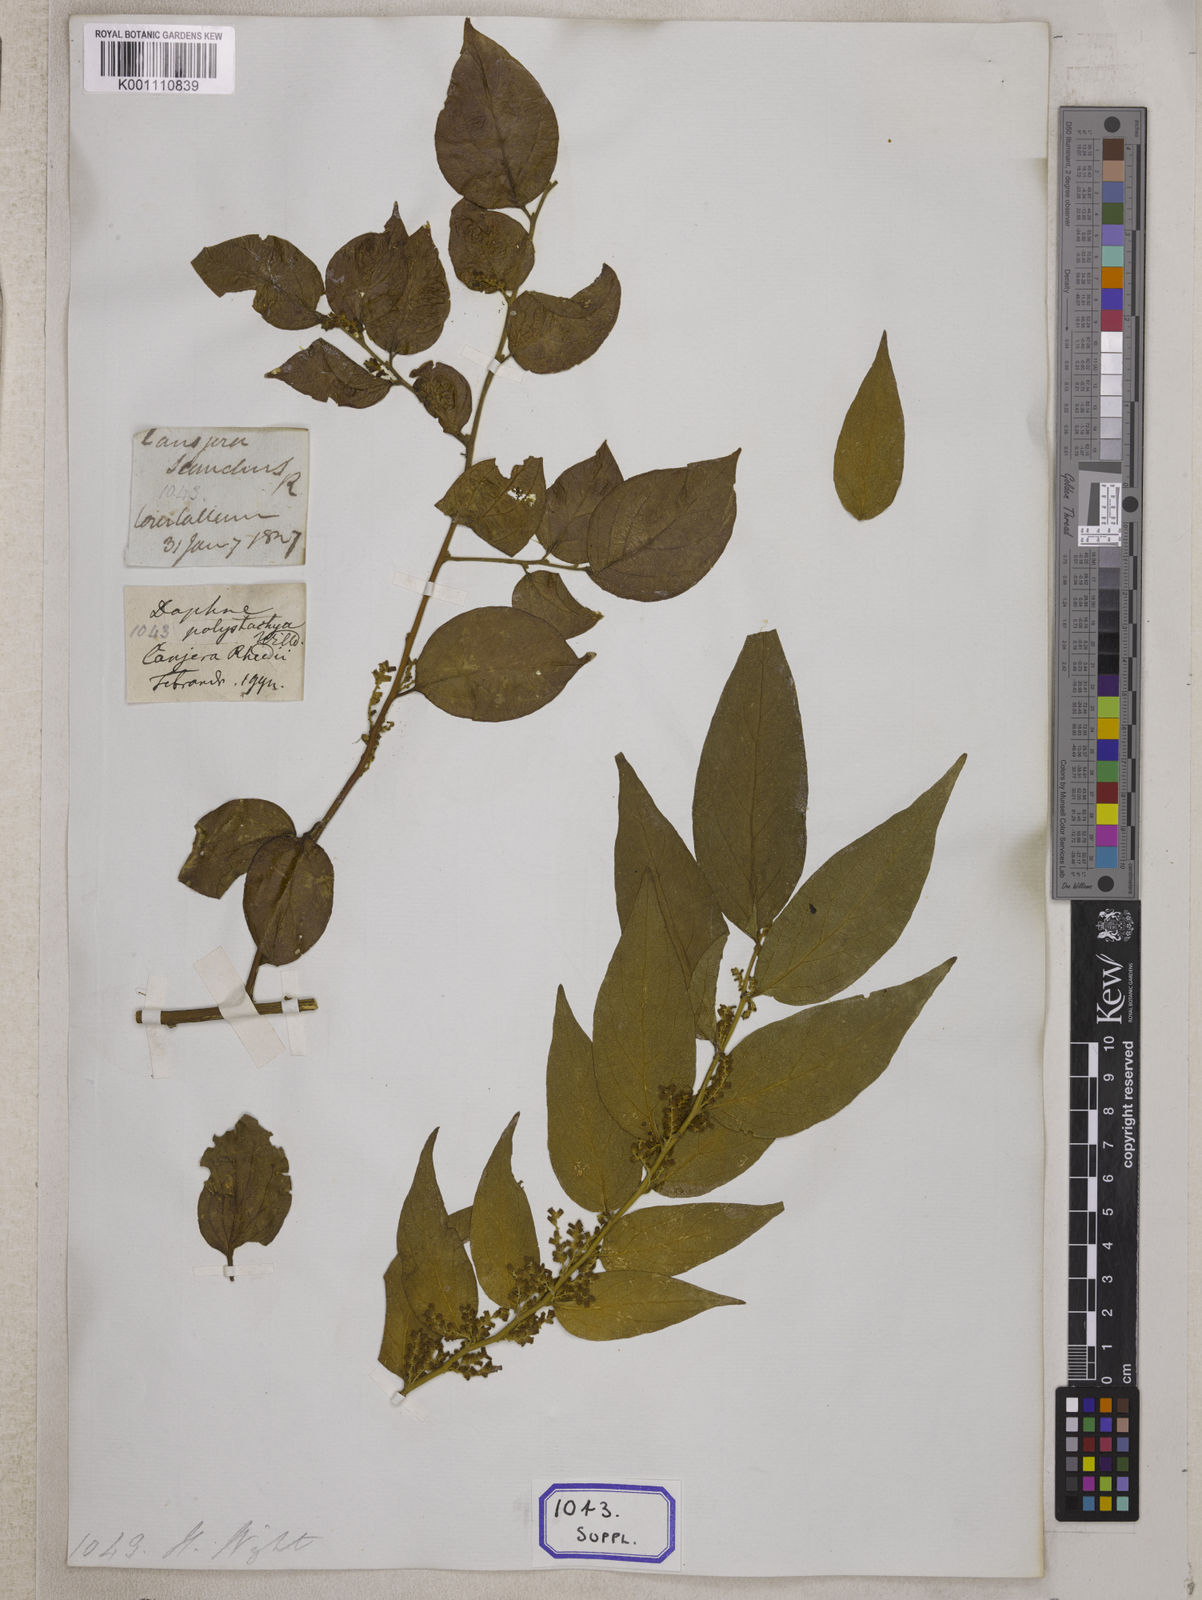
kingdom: Plantae
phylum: Tracheophyta
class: Magnoliopsida
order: Santalales
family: Opiliaceae
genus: Cansjera
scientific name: Cansjera rheedei
